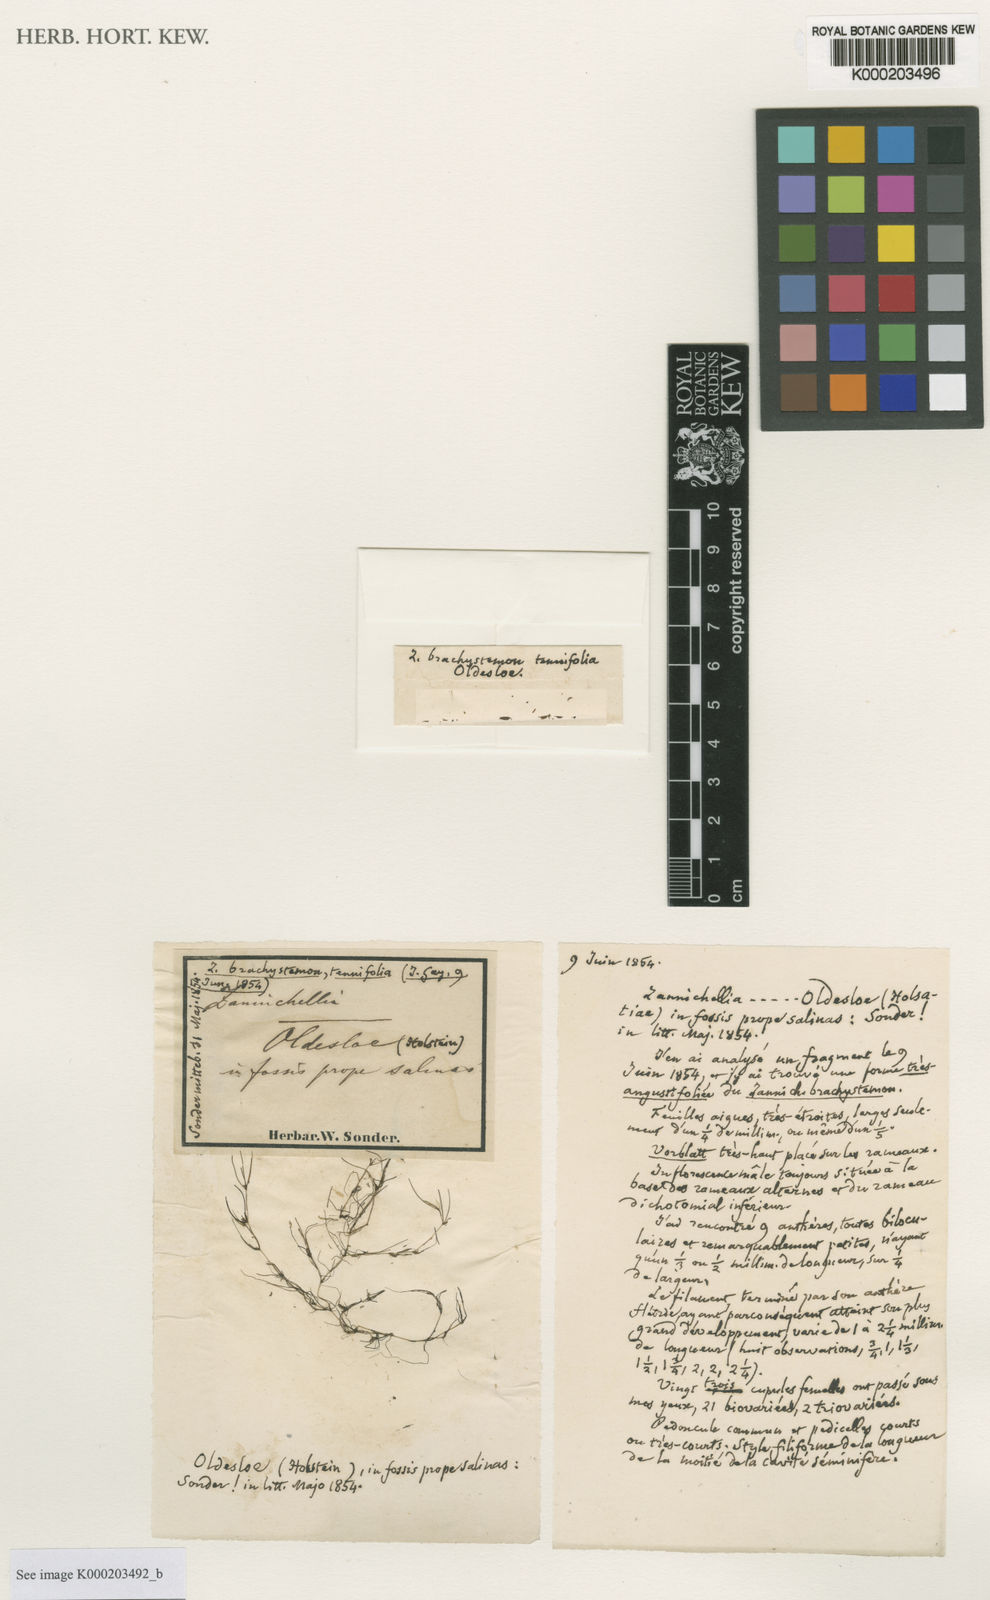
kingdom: Plantae
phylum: Tracheophyta
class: Liliopsida
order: Alismatales
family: Potamogetonaceae
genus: Zannichellia
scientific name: Zannichellia palustris
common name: Horned pondweed
